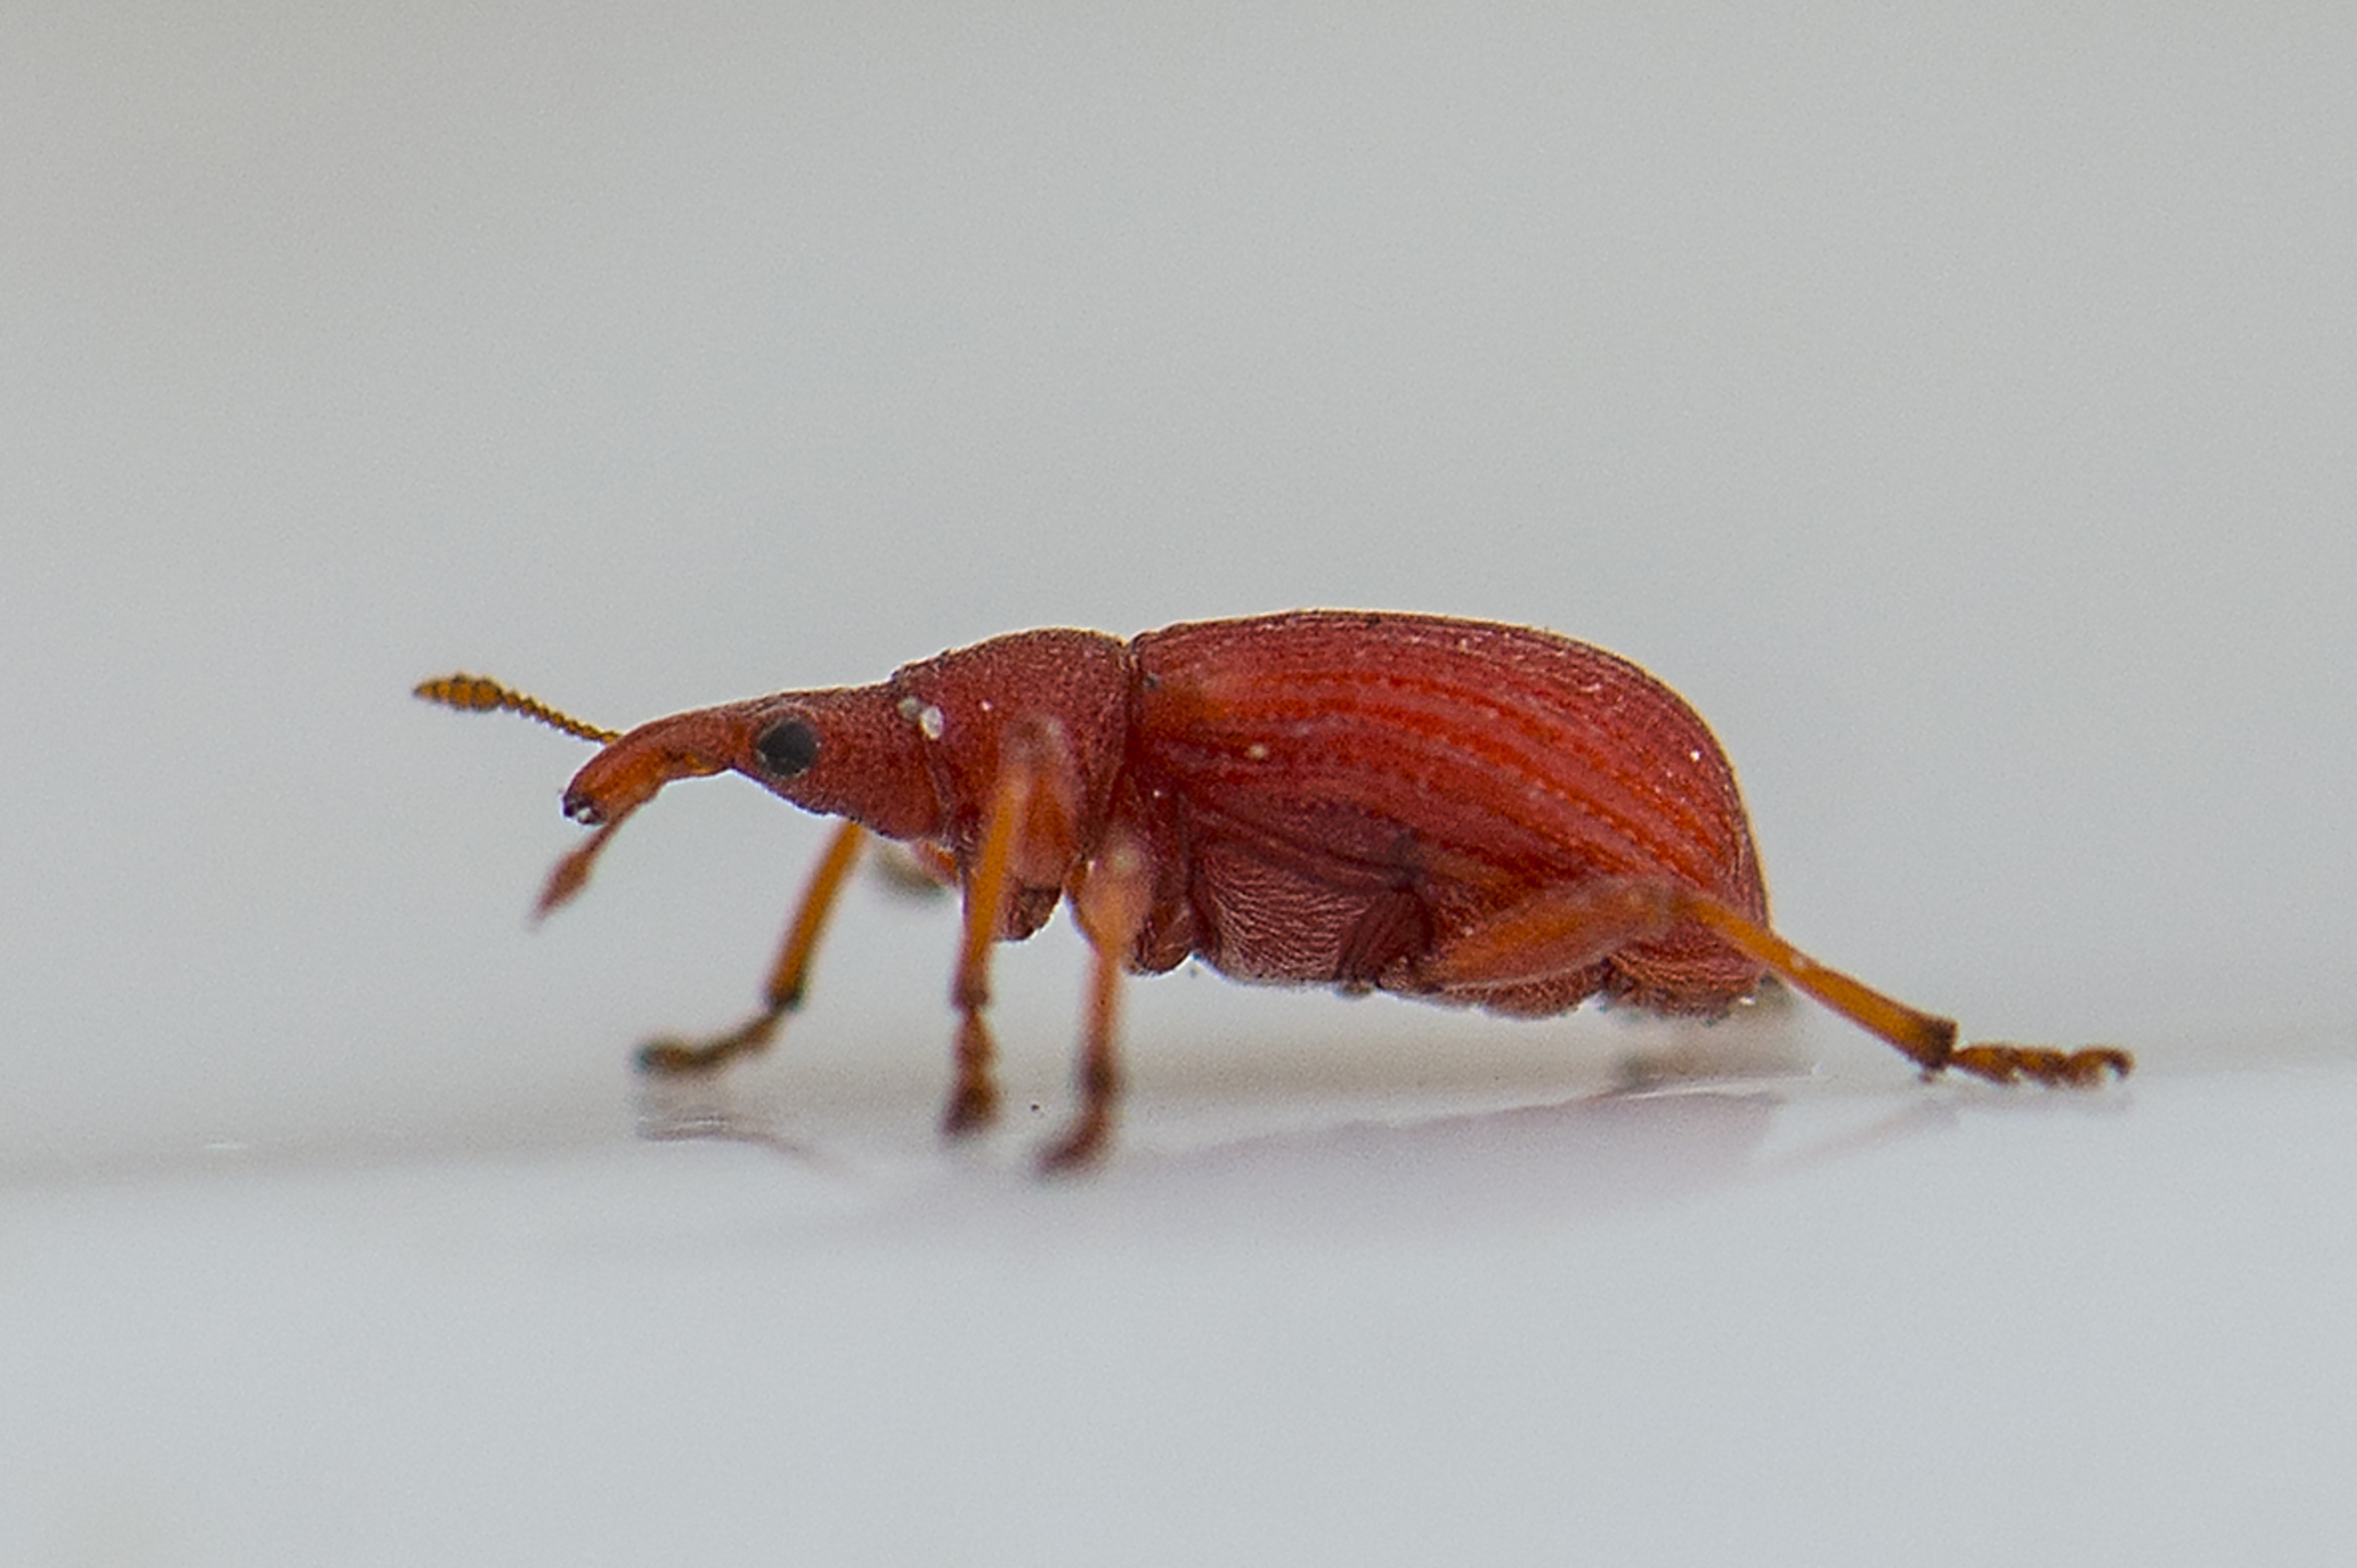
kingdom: Animalia
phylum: Arthropoda
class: Insecta
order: Coleoptera
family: Apionidae
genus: Apion
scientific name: Apion frumentarium
